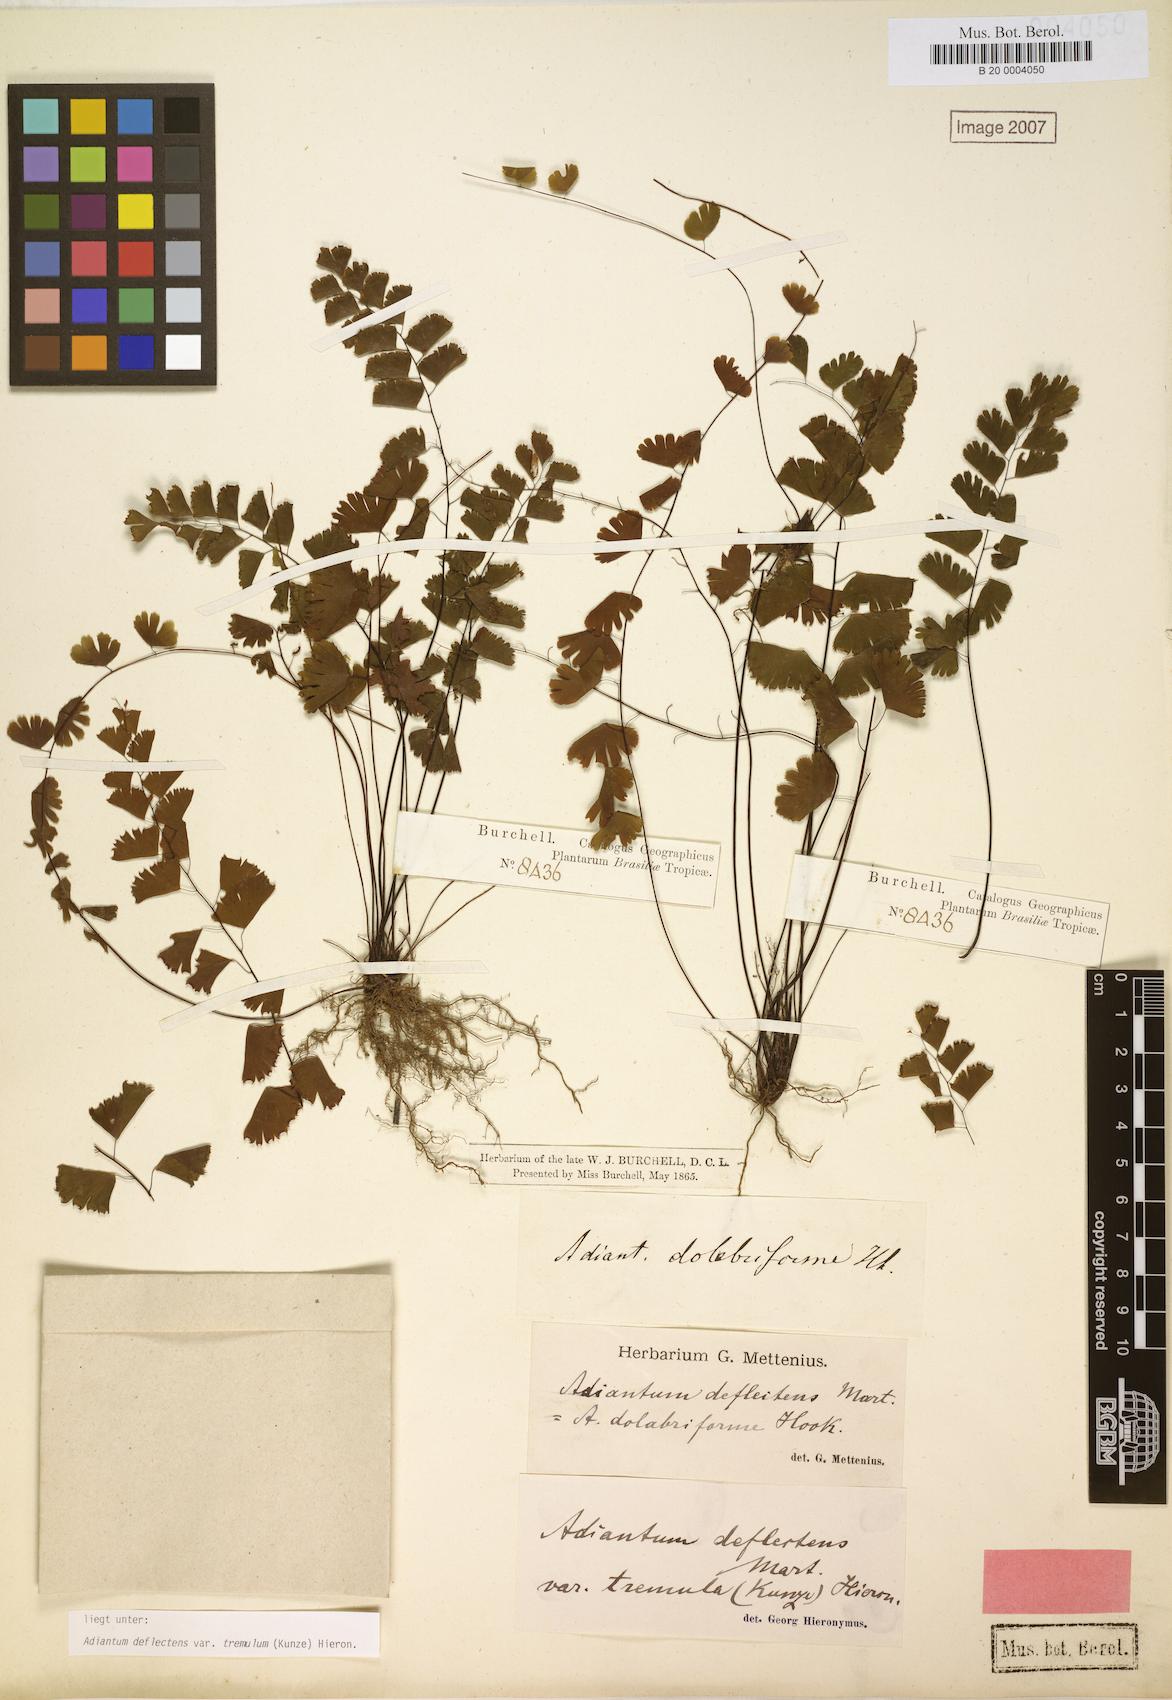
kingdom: Plantae
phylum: Tracheophyta
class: Polypodiopsida
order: Polypodiales
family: Pteridaceae
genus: Adiantum
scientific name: Adiantum deflectens
